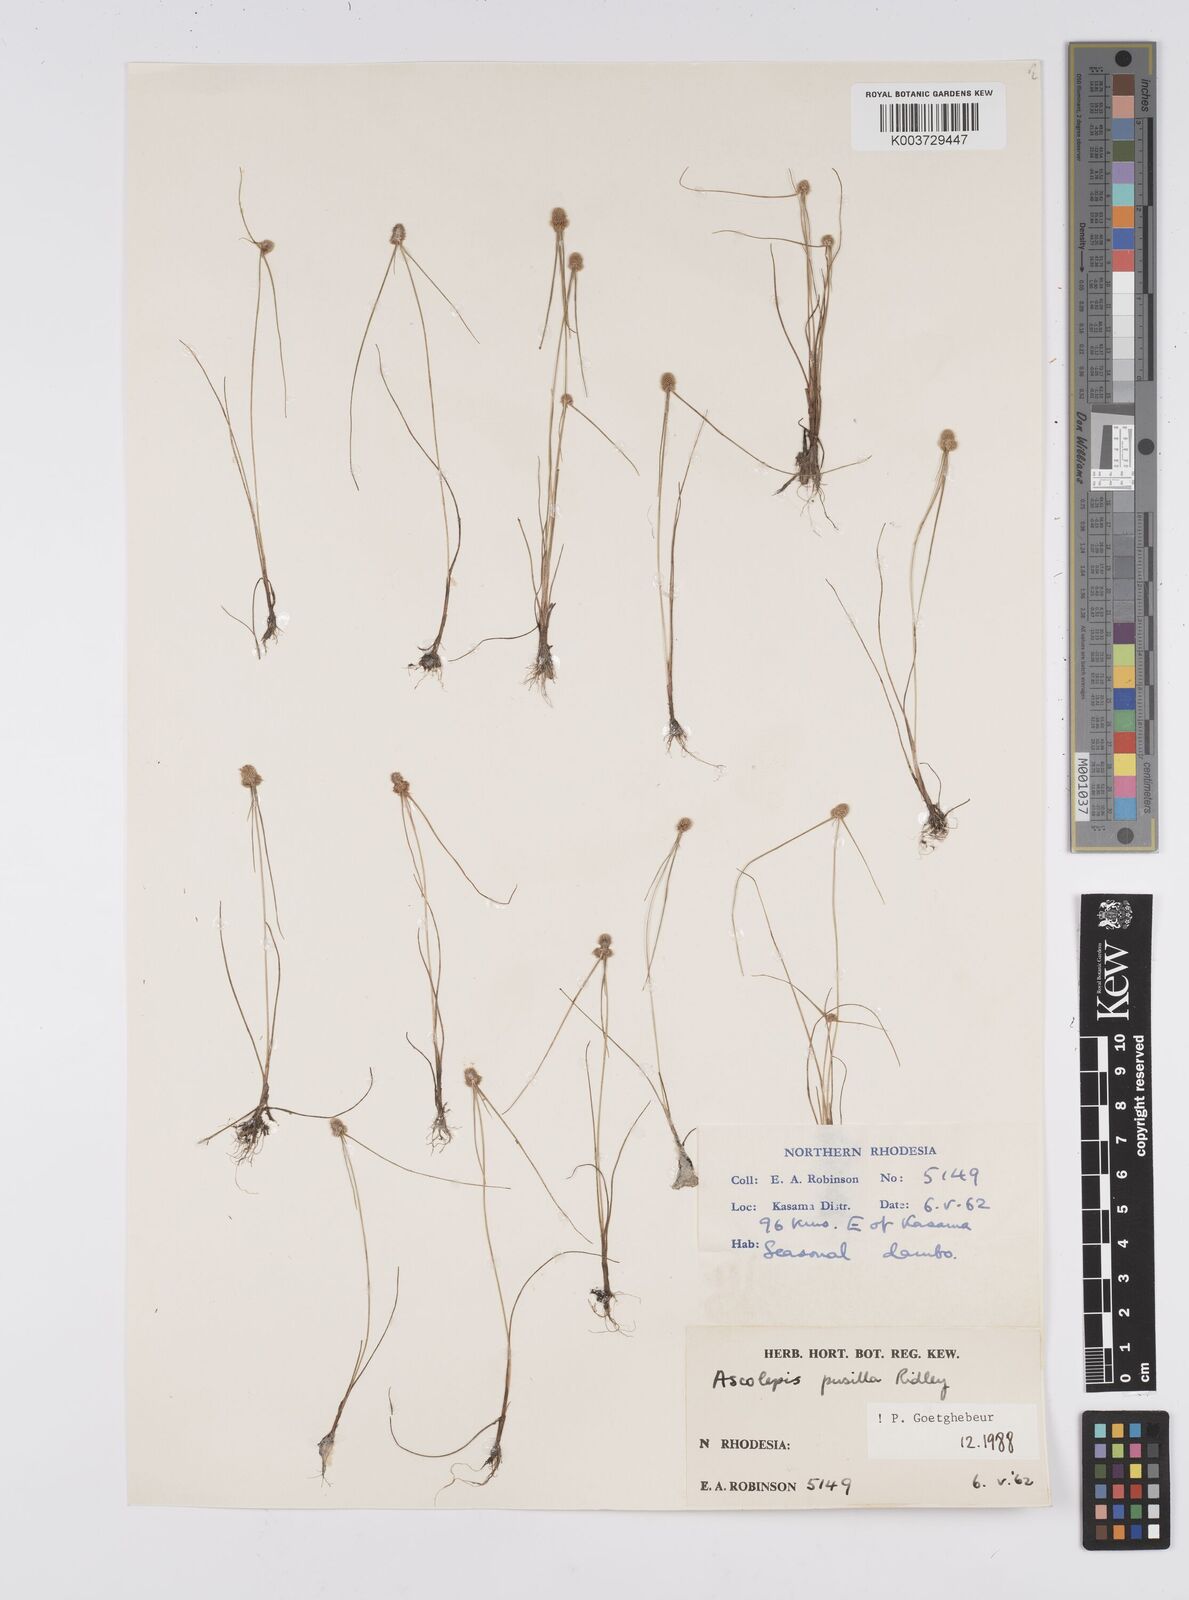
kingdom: Plantae
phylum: Tracheophyta
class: Liliopsida
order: Poales
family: Cyperaceae
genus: Cyperus
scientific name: Cyperus
